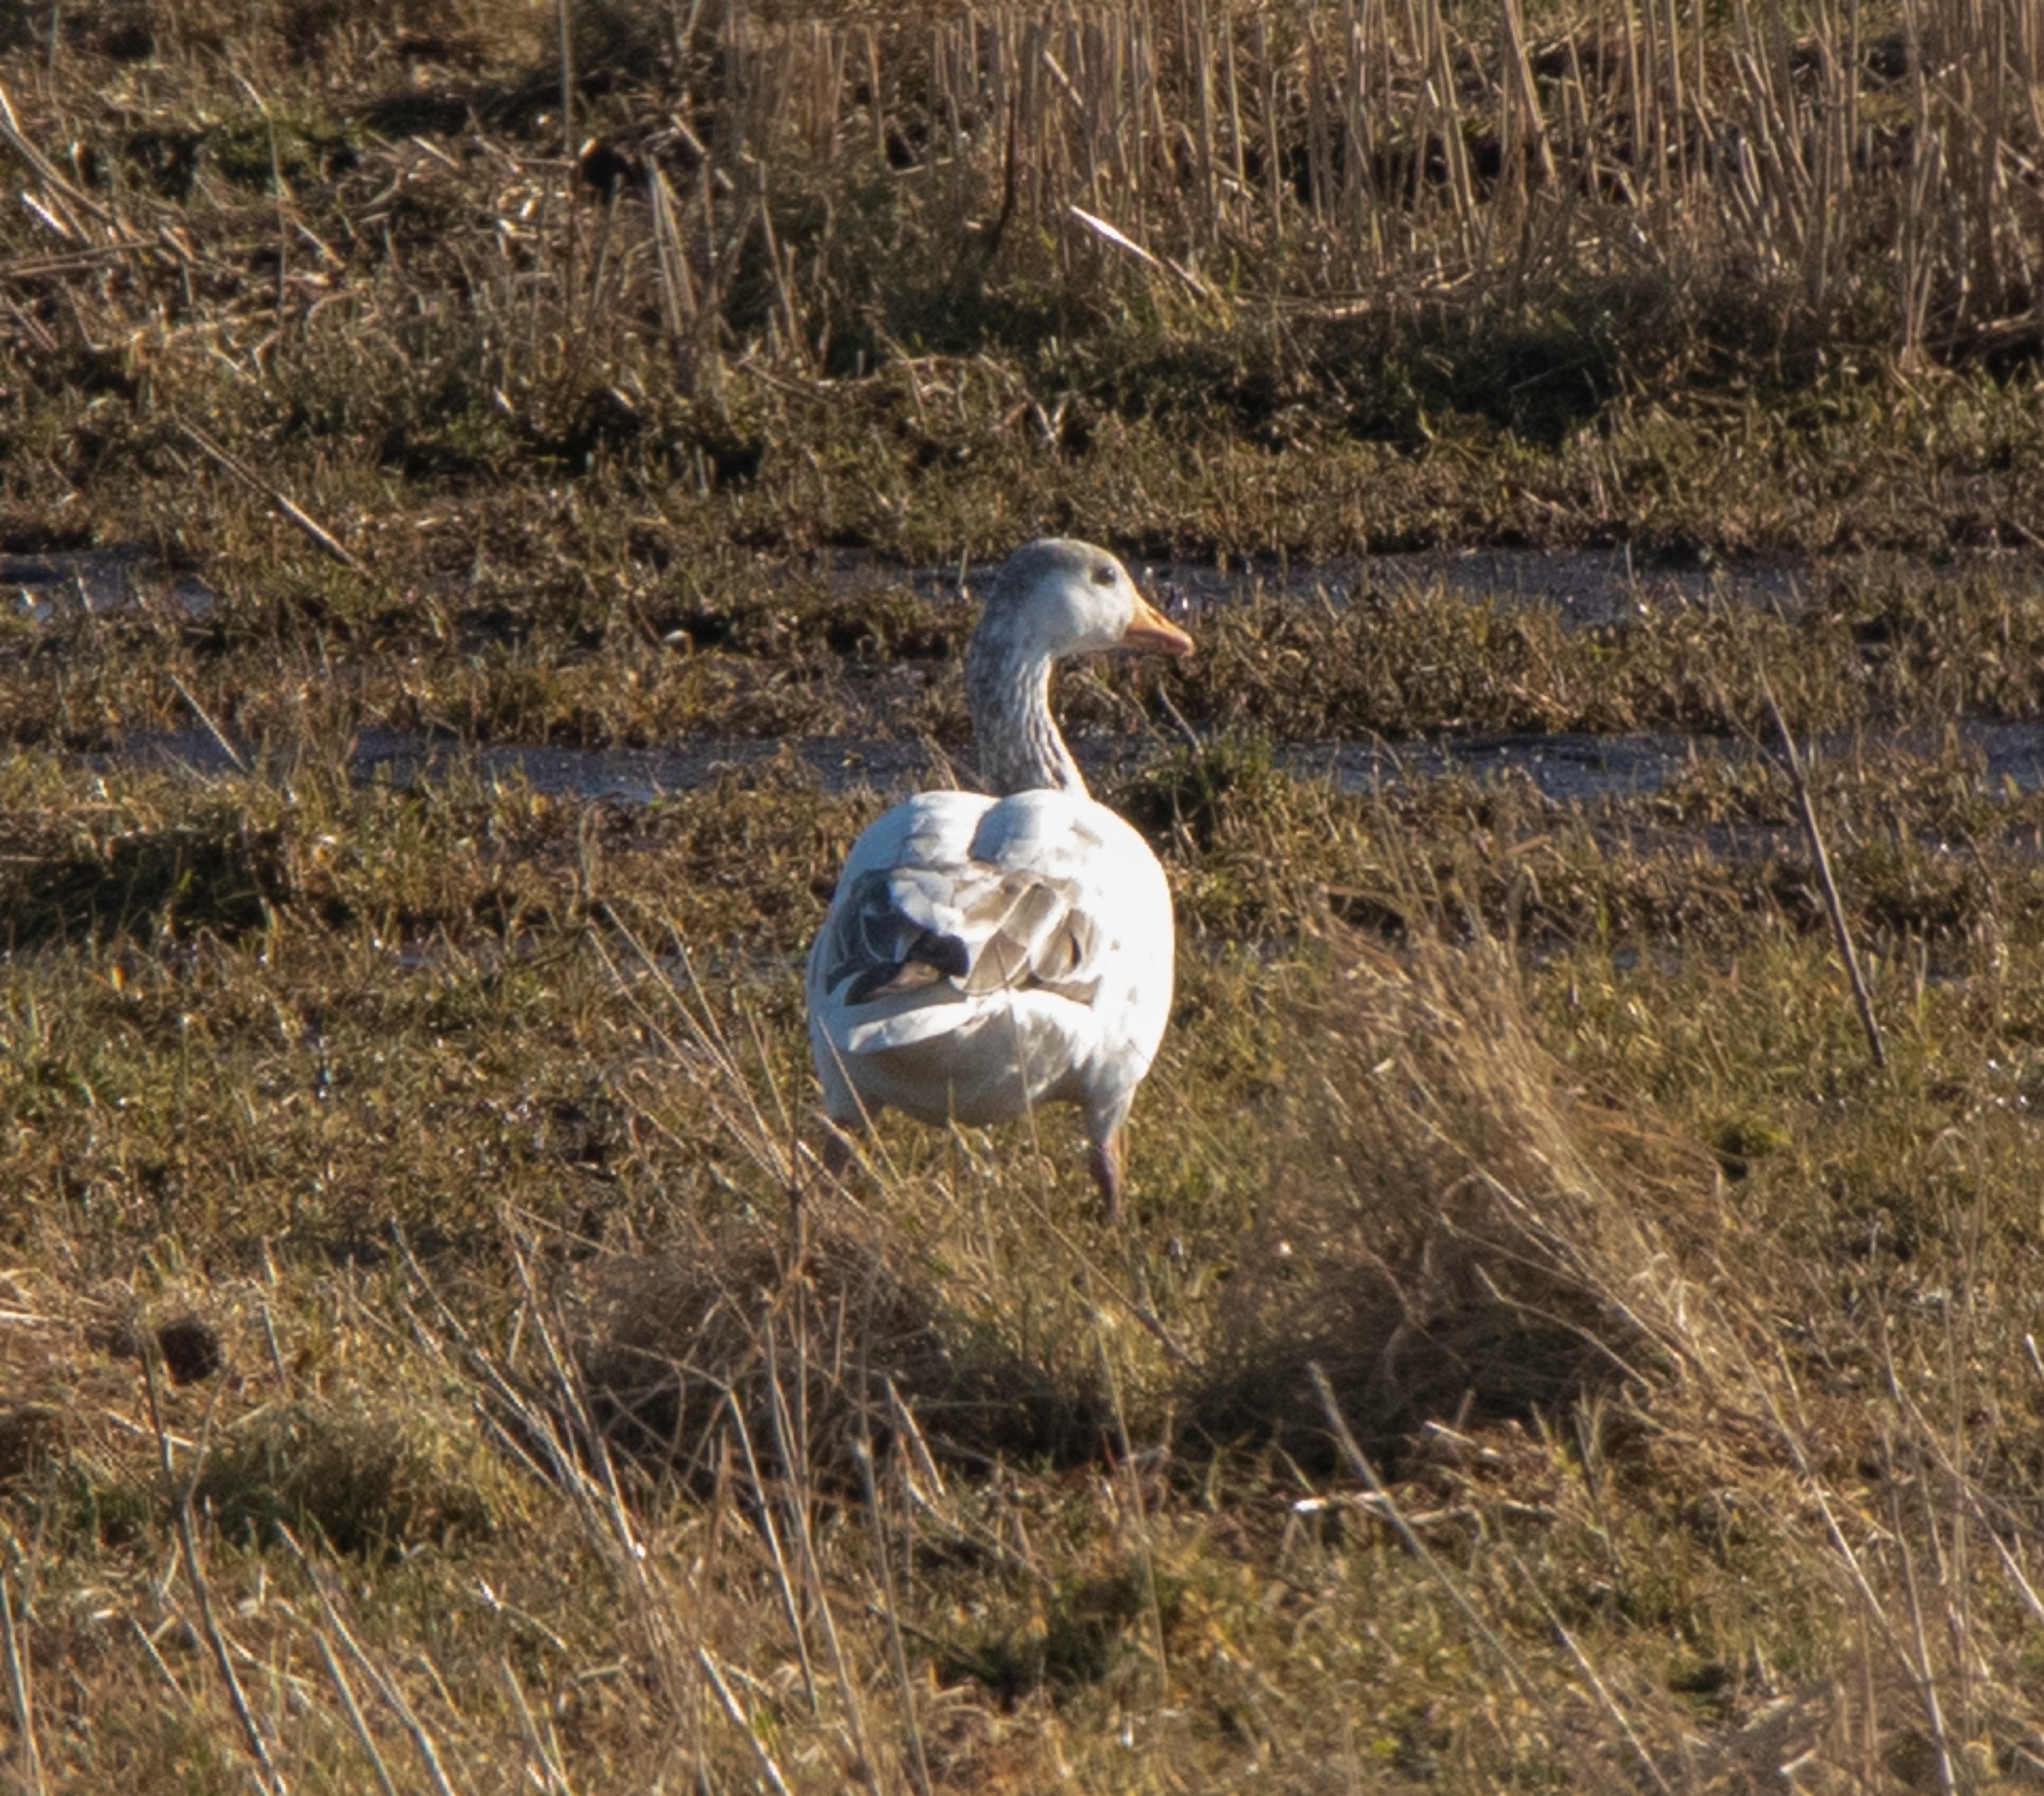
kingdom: Animalia
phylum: Chordata
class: Aves
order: Anseriformes
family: Anatidae
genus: Anser
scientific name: Anser anser
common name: Grågås
